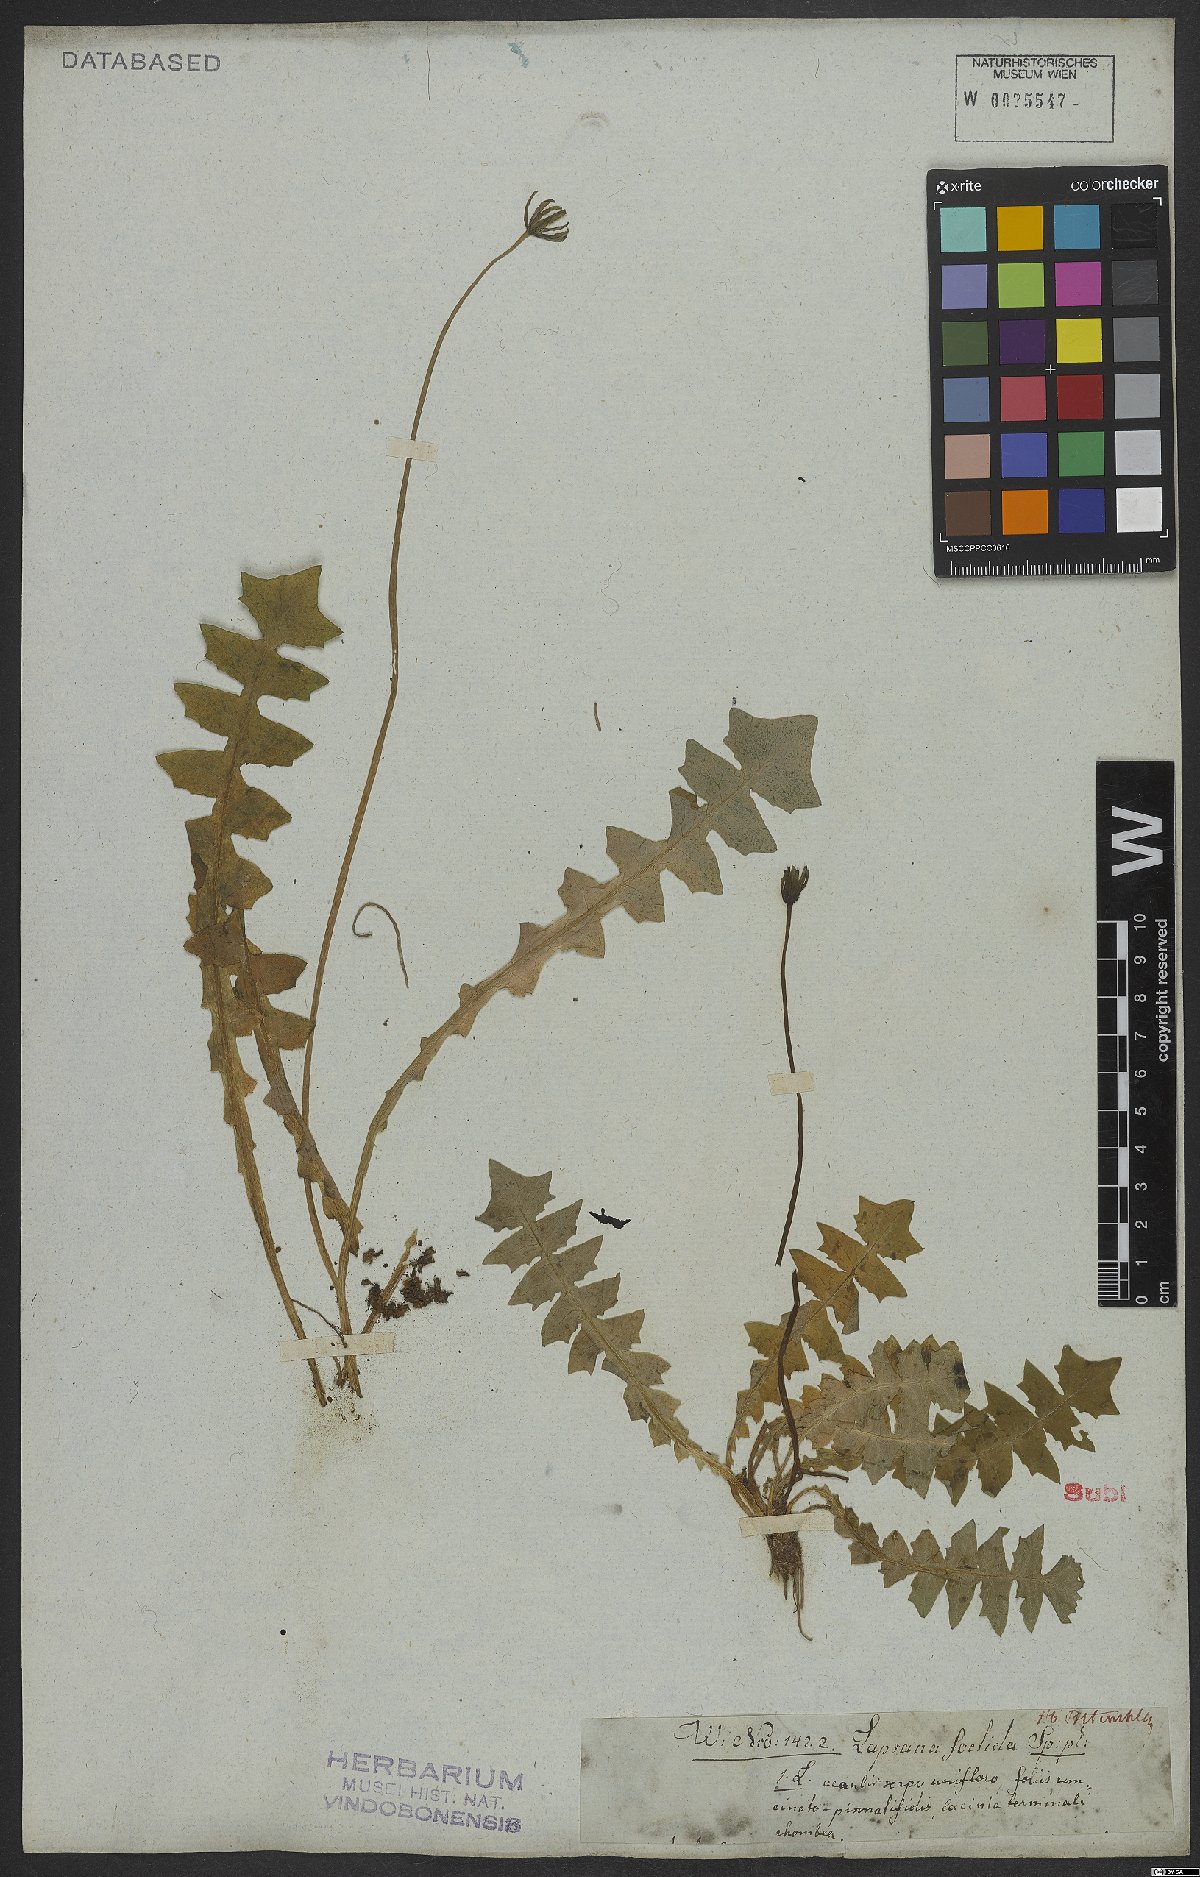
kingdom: Plantae
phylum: Tracheophyta
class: Magnoliopsida
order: Asterales
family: Asteraceae
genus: Aposeris
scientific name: Aposeris foetida
